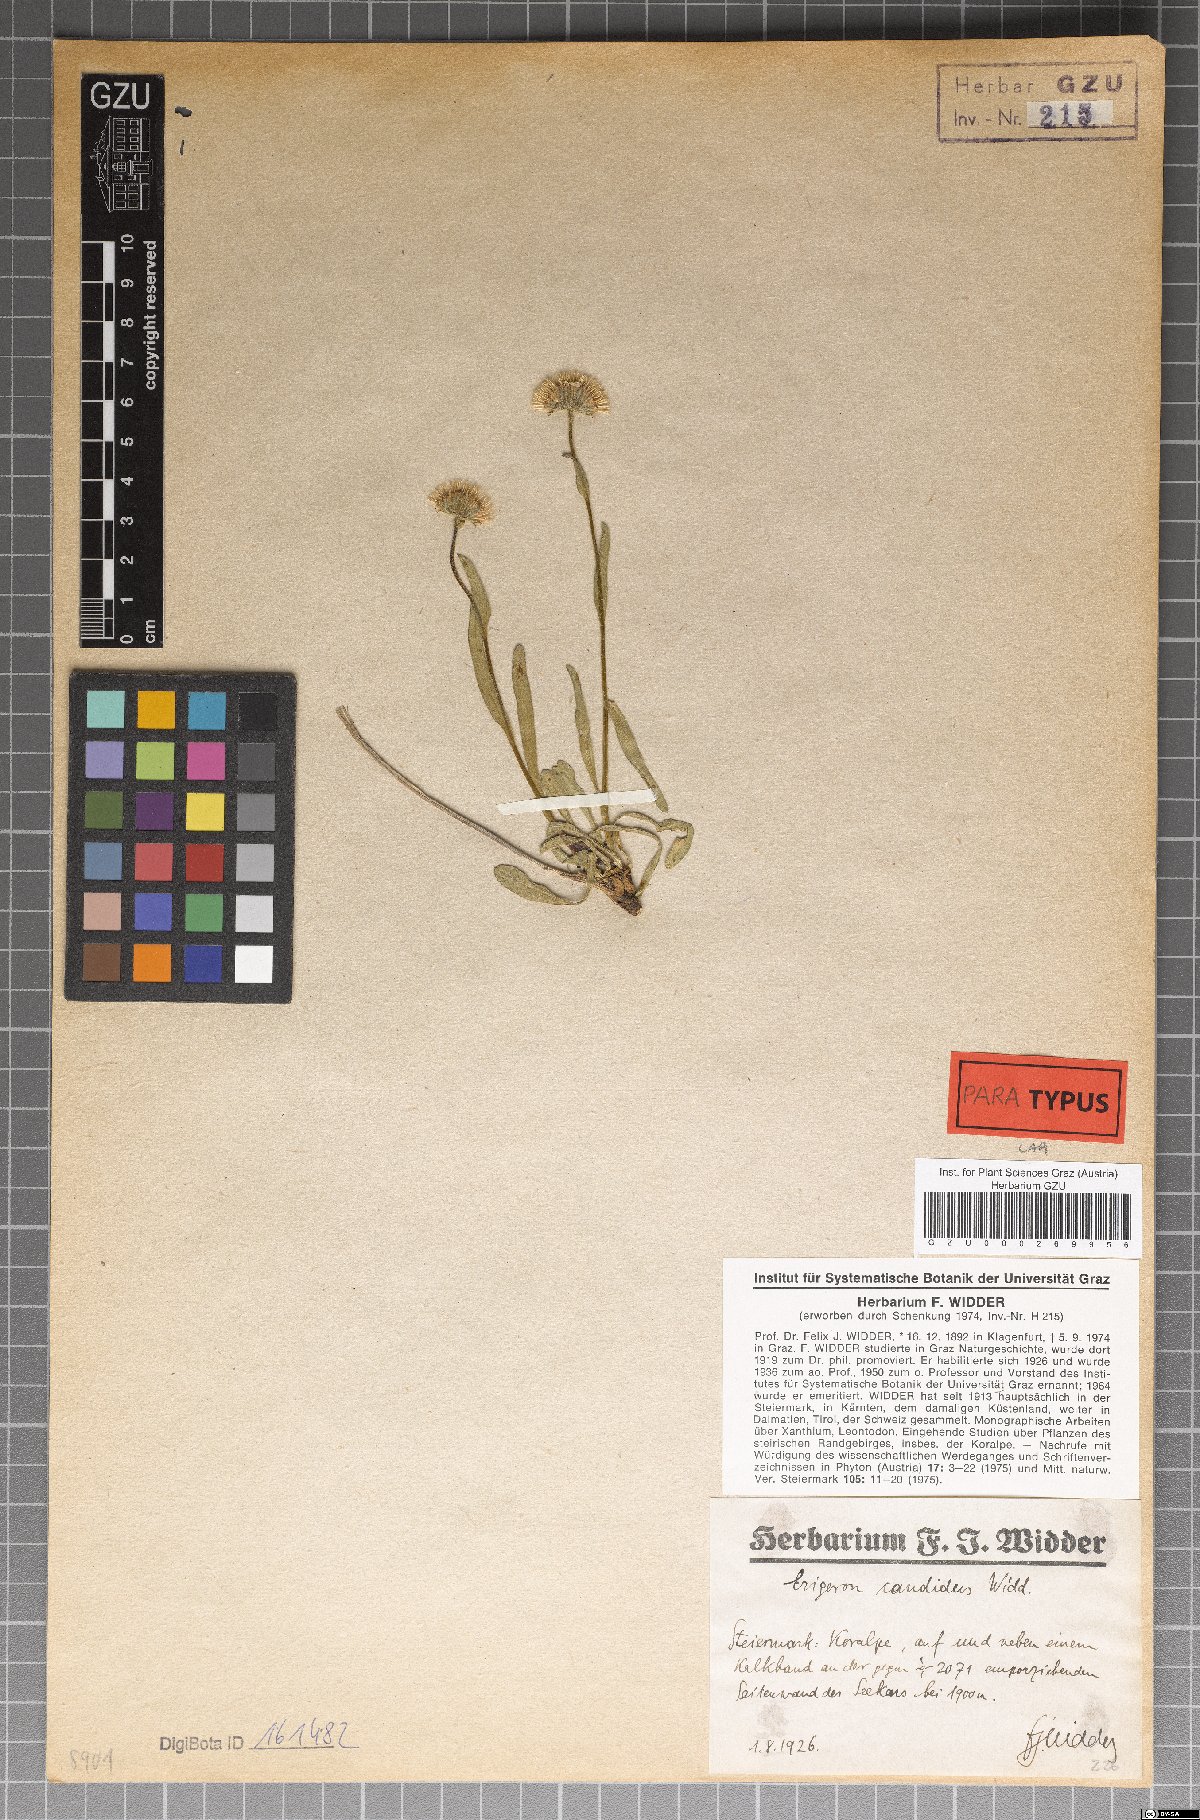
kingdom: Plantae
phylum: Tracheophyta
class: Magnoliopsida
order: Asterales
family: Asteraceae
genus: Erigeron
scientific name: Erigeron glabratus
